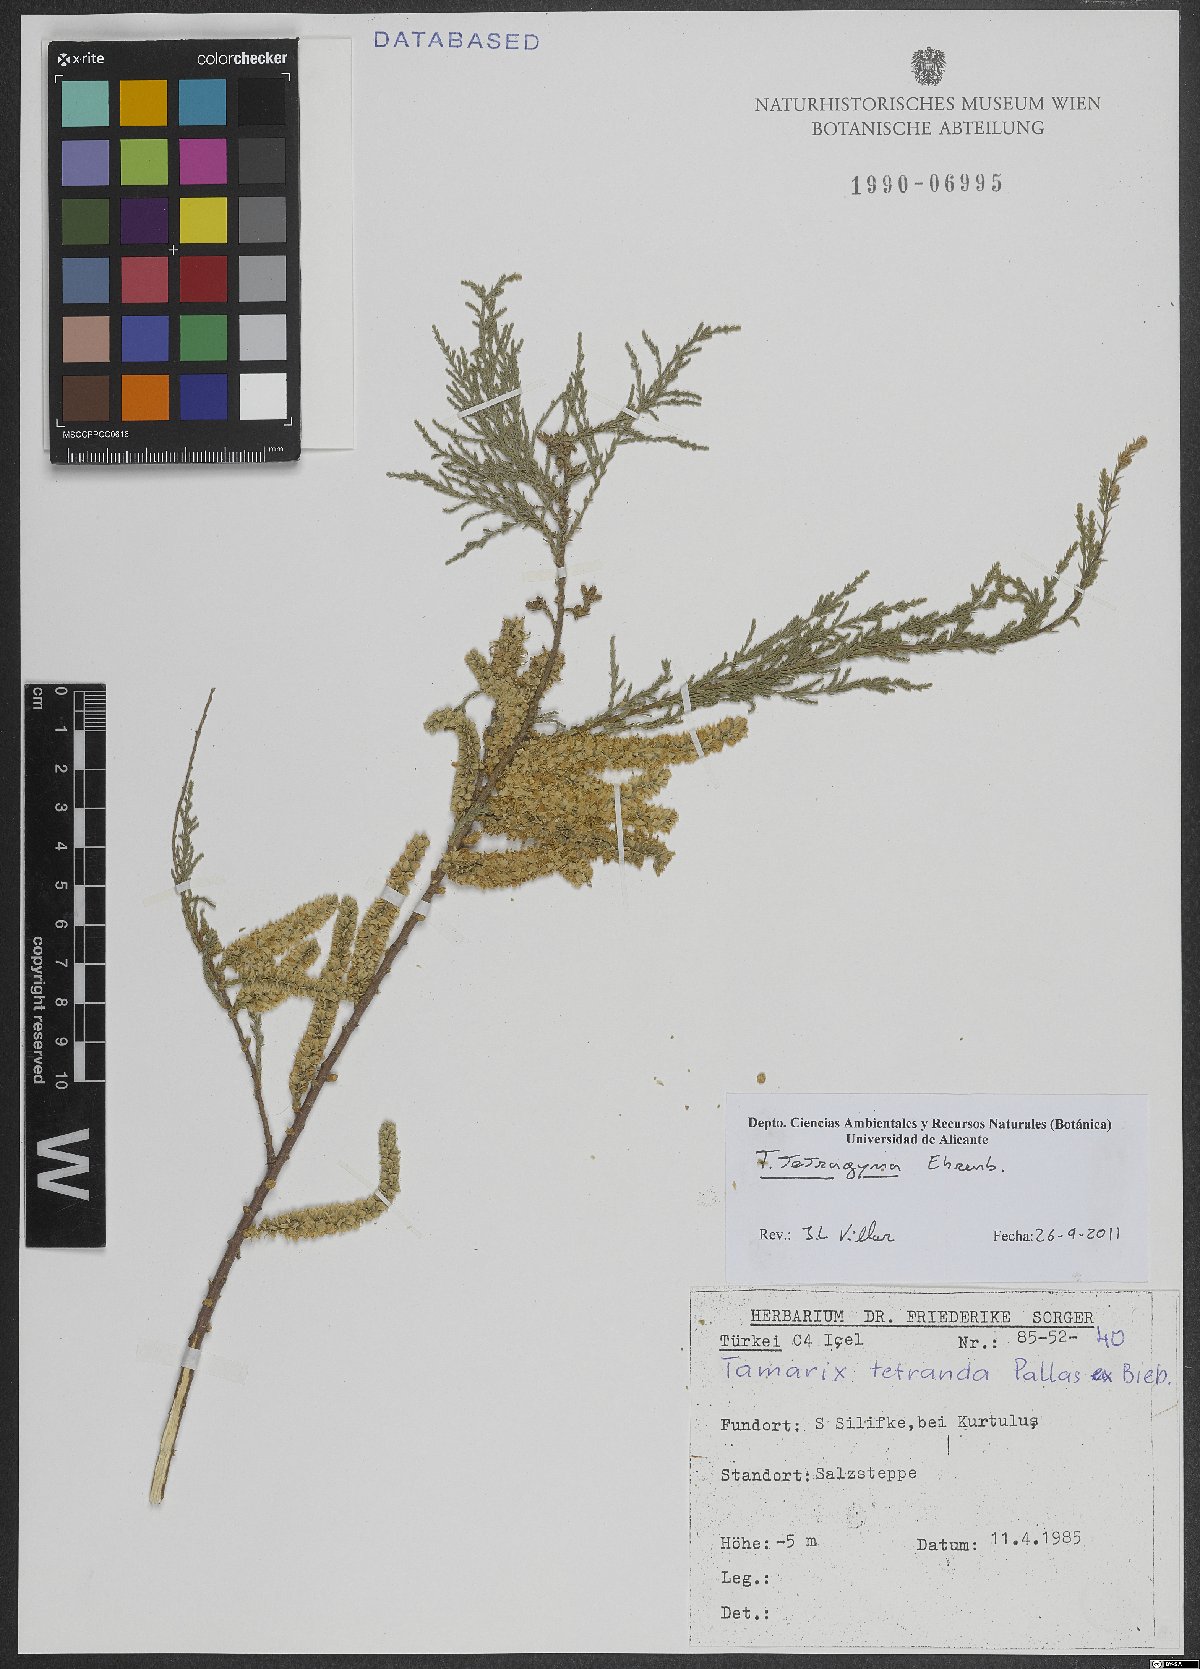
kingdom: Plantae
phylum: Tracheophyta
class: Magnoliopsida
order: Caryophyllales
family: Tamaricaceae
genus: Tamarix
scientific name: Tamarix tetragyna
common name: Four-stamen tamarisk
